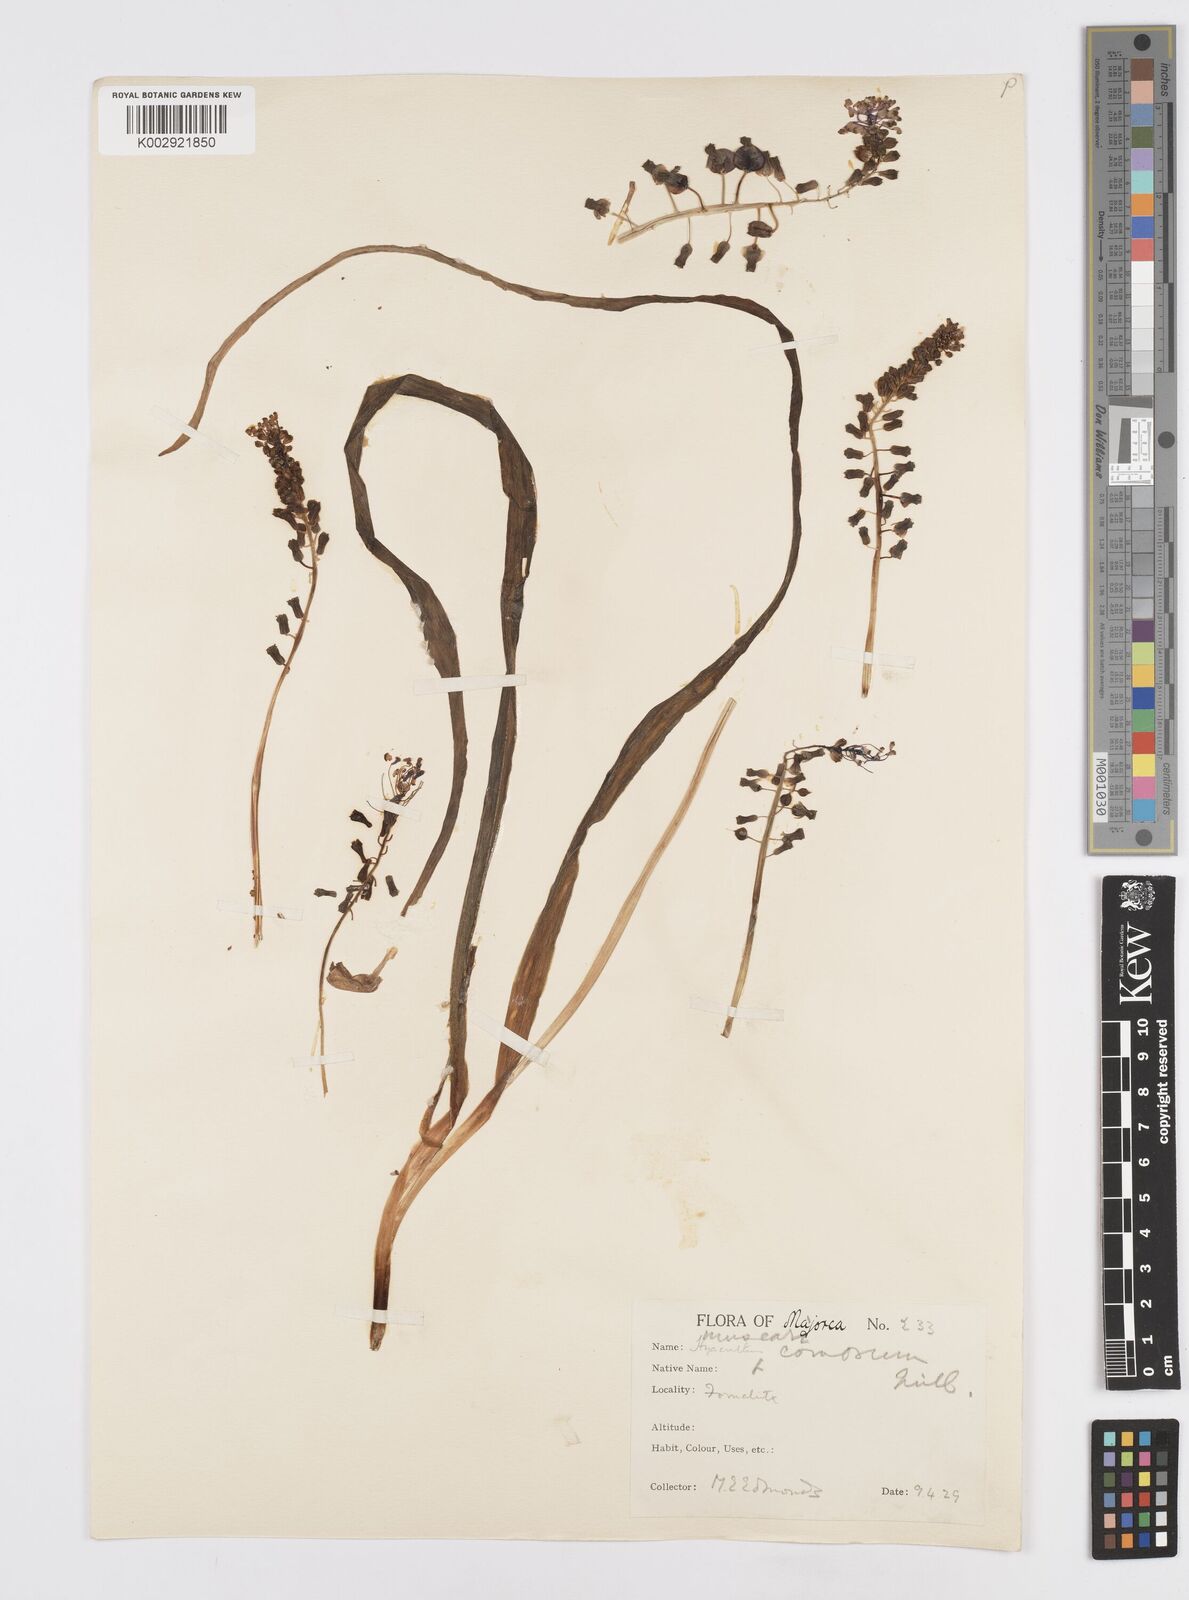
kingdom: Plantae
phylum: Tracheophyta
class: Liliopsida
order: Asparagales
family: Asparagaceae
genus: Muscari
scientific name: Muscari comosum
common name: Tassel hyacinth
